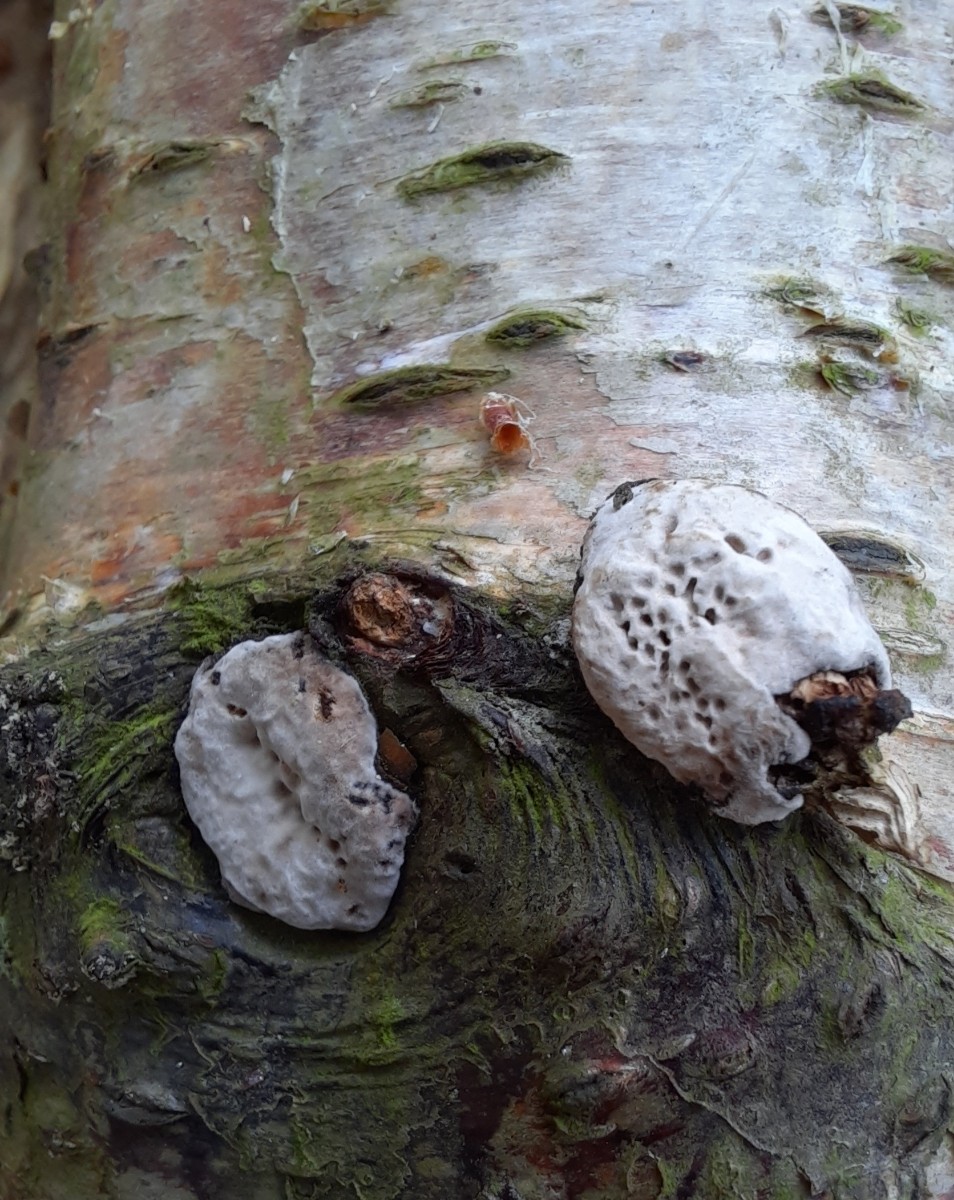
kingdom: Fungi
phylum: Basidiomycota
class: Agaricomycetes
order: Polyporales
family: Polyporaceae
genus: Podofomes
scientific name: Podofomes mollis
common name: blød begporesvamp
